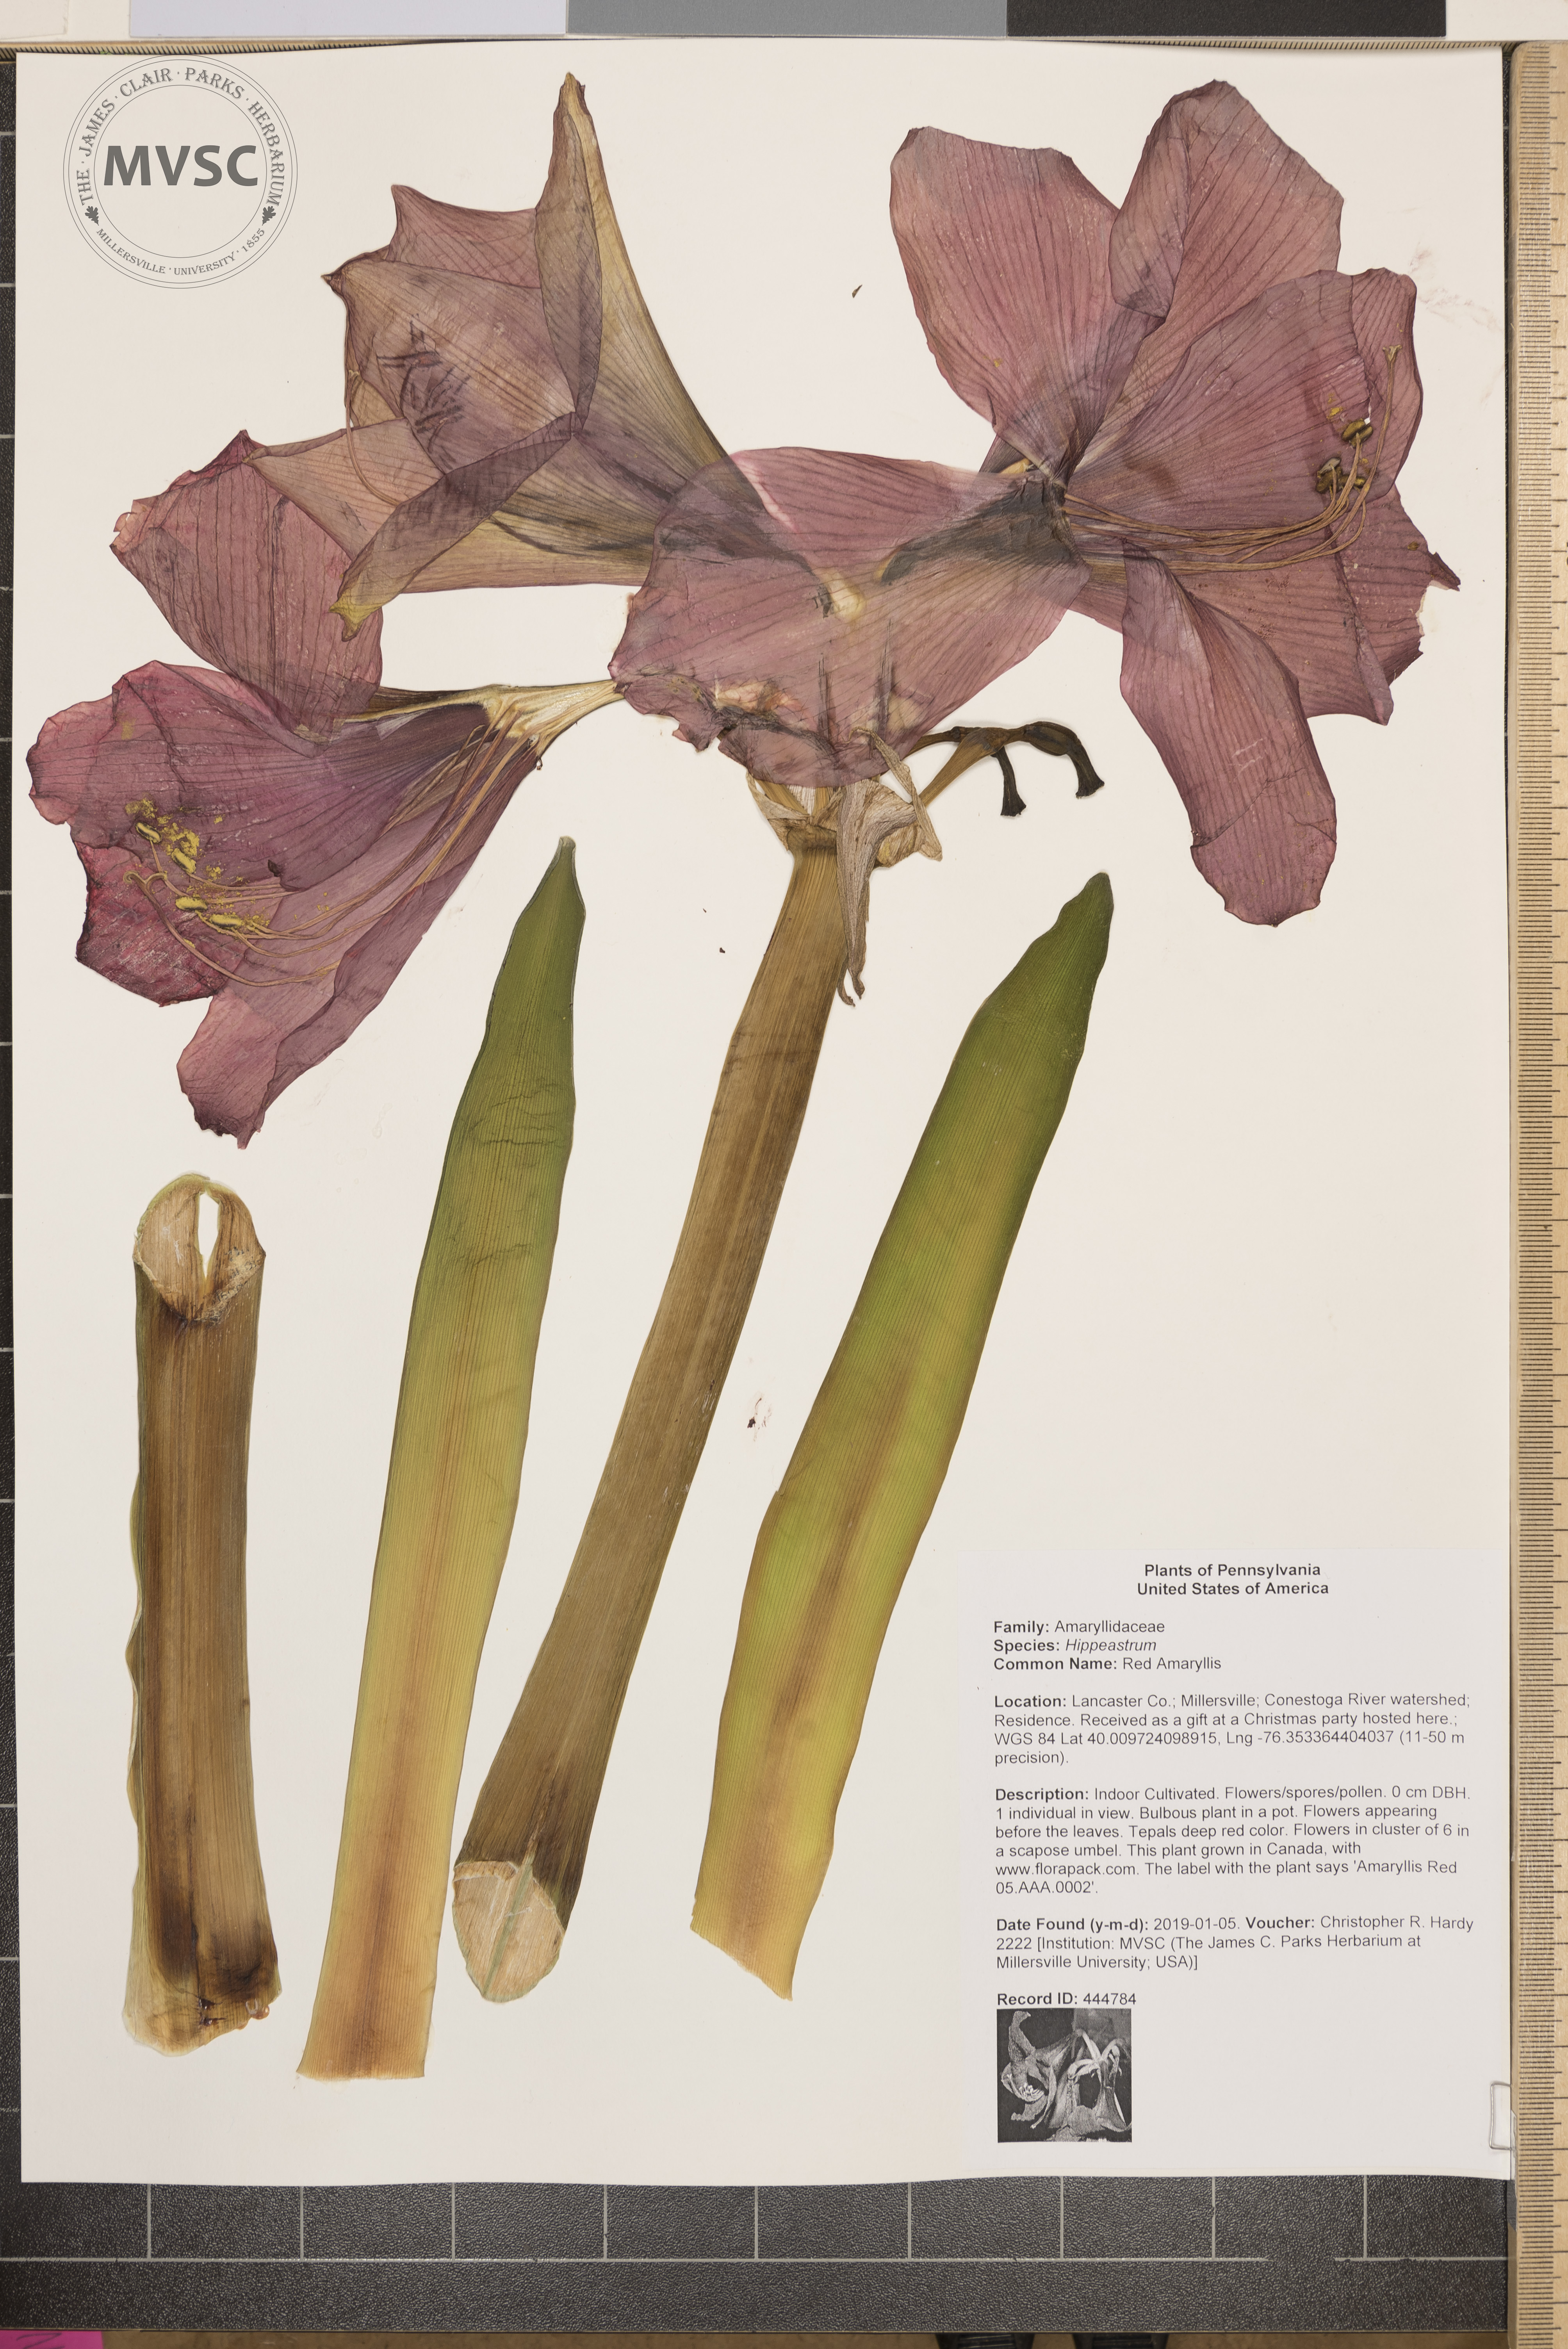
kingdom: Plantae
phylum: Tracheophyta
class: Liliopsida
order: Asparagales
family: Amaryllidaceae
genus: Hippeastrum
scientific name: Hippeastrum
